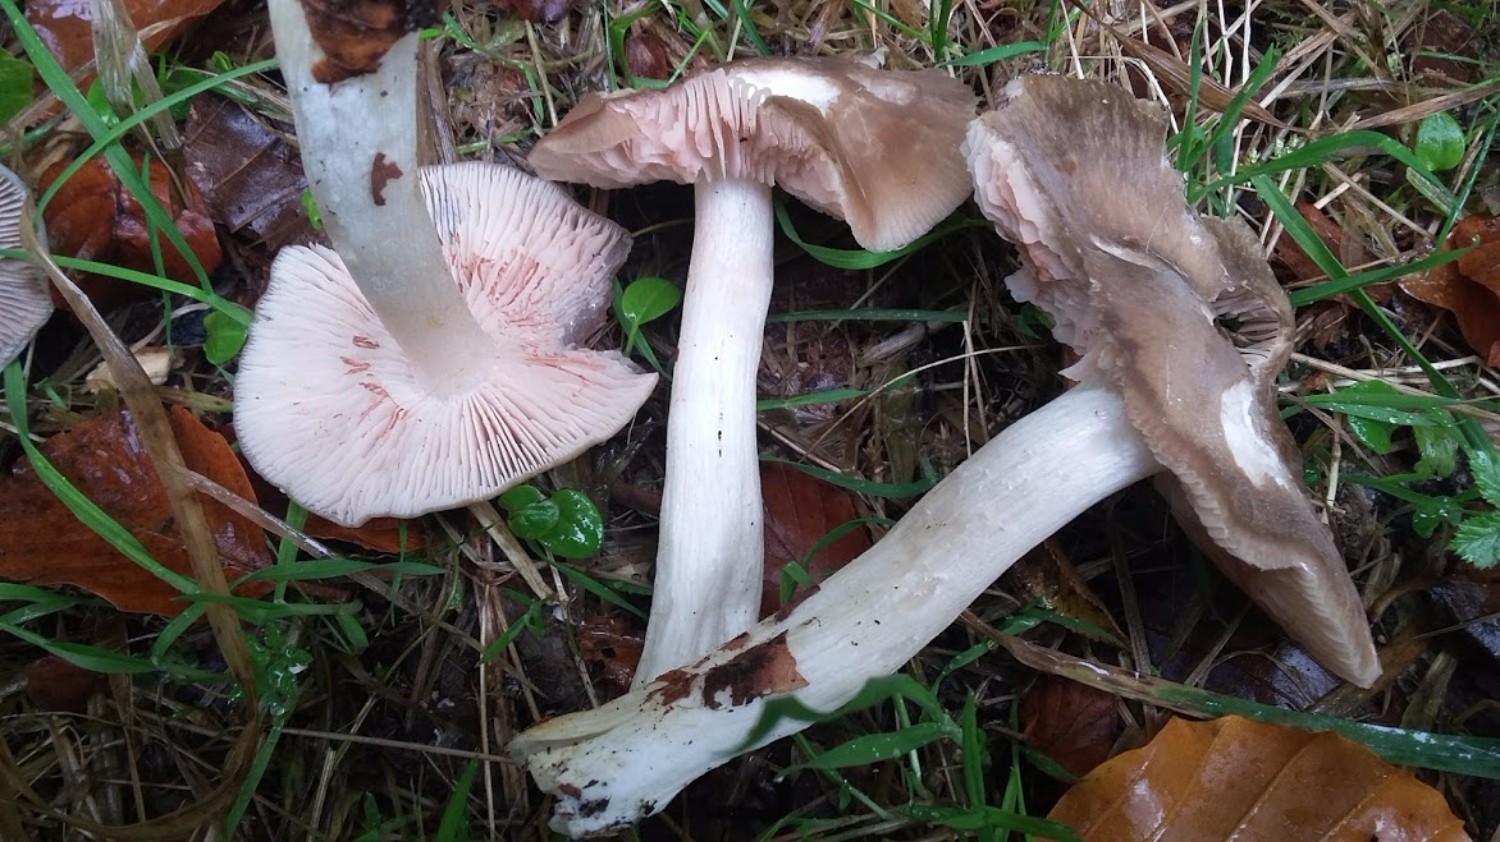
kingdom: Fungi
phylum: Basidiomycota
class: Agaricomycetes
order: Agaricales
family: Entolomataceae
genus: Entoloma
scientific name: Entoloma
